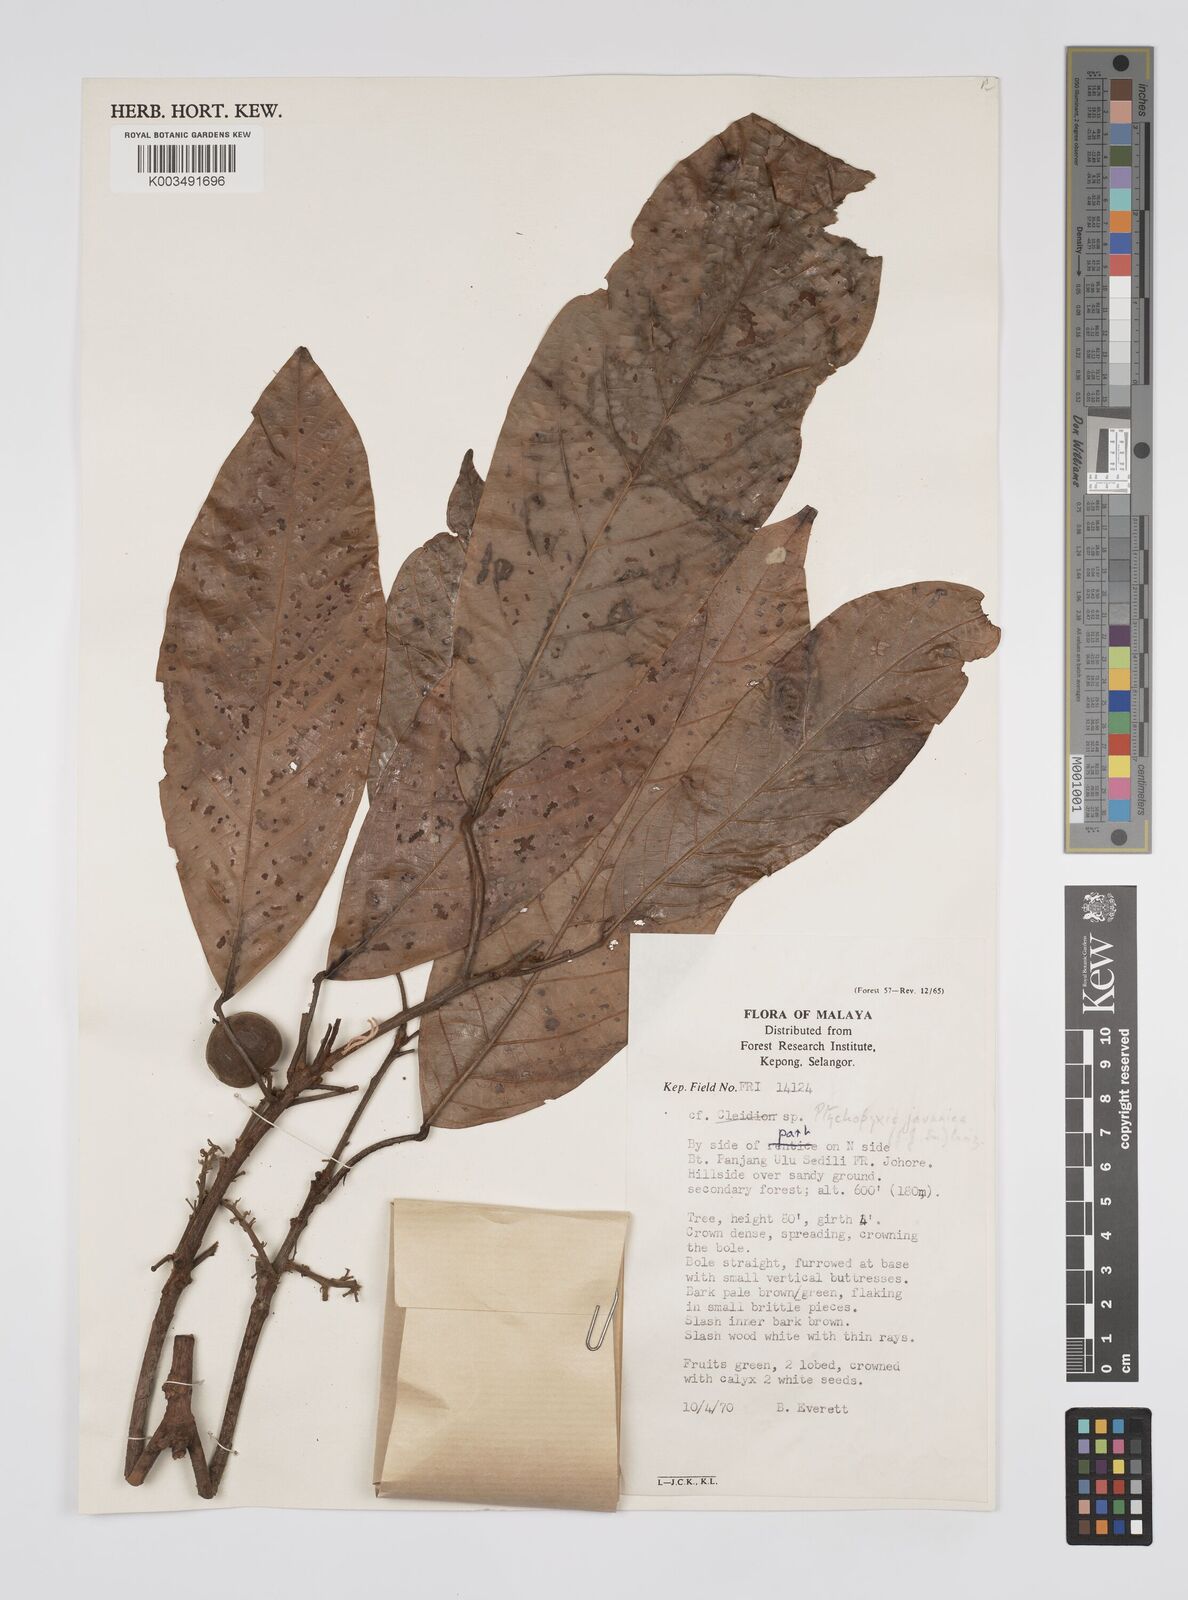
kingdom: Plantae
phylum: Tracheophyta
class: Magnoliopsida
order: Malpighiales
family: Euphorbiaceae
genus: Ptychopyxis
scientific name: Ptychopyxis javanica
